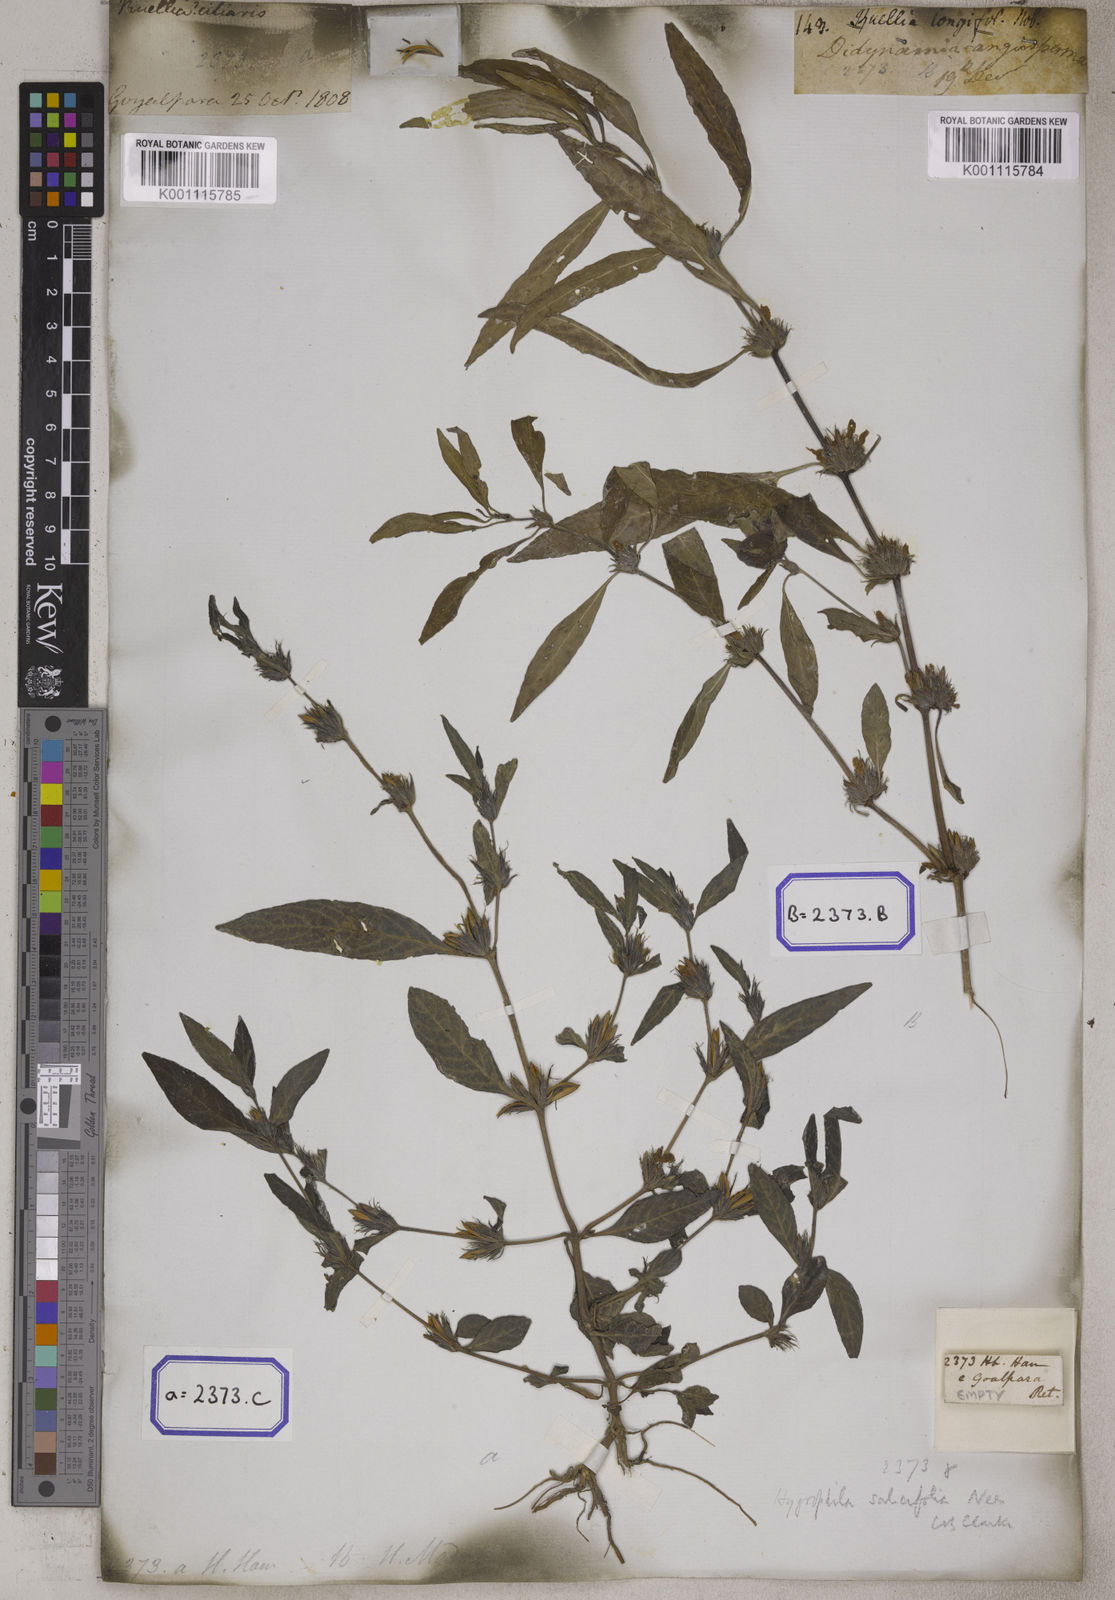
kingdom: Plantae
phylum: Tracheophyta
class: Magnoliopsida
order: Lamiales
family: Acanthaceae
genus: Hygrophila
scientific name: Hygrophila erecta
